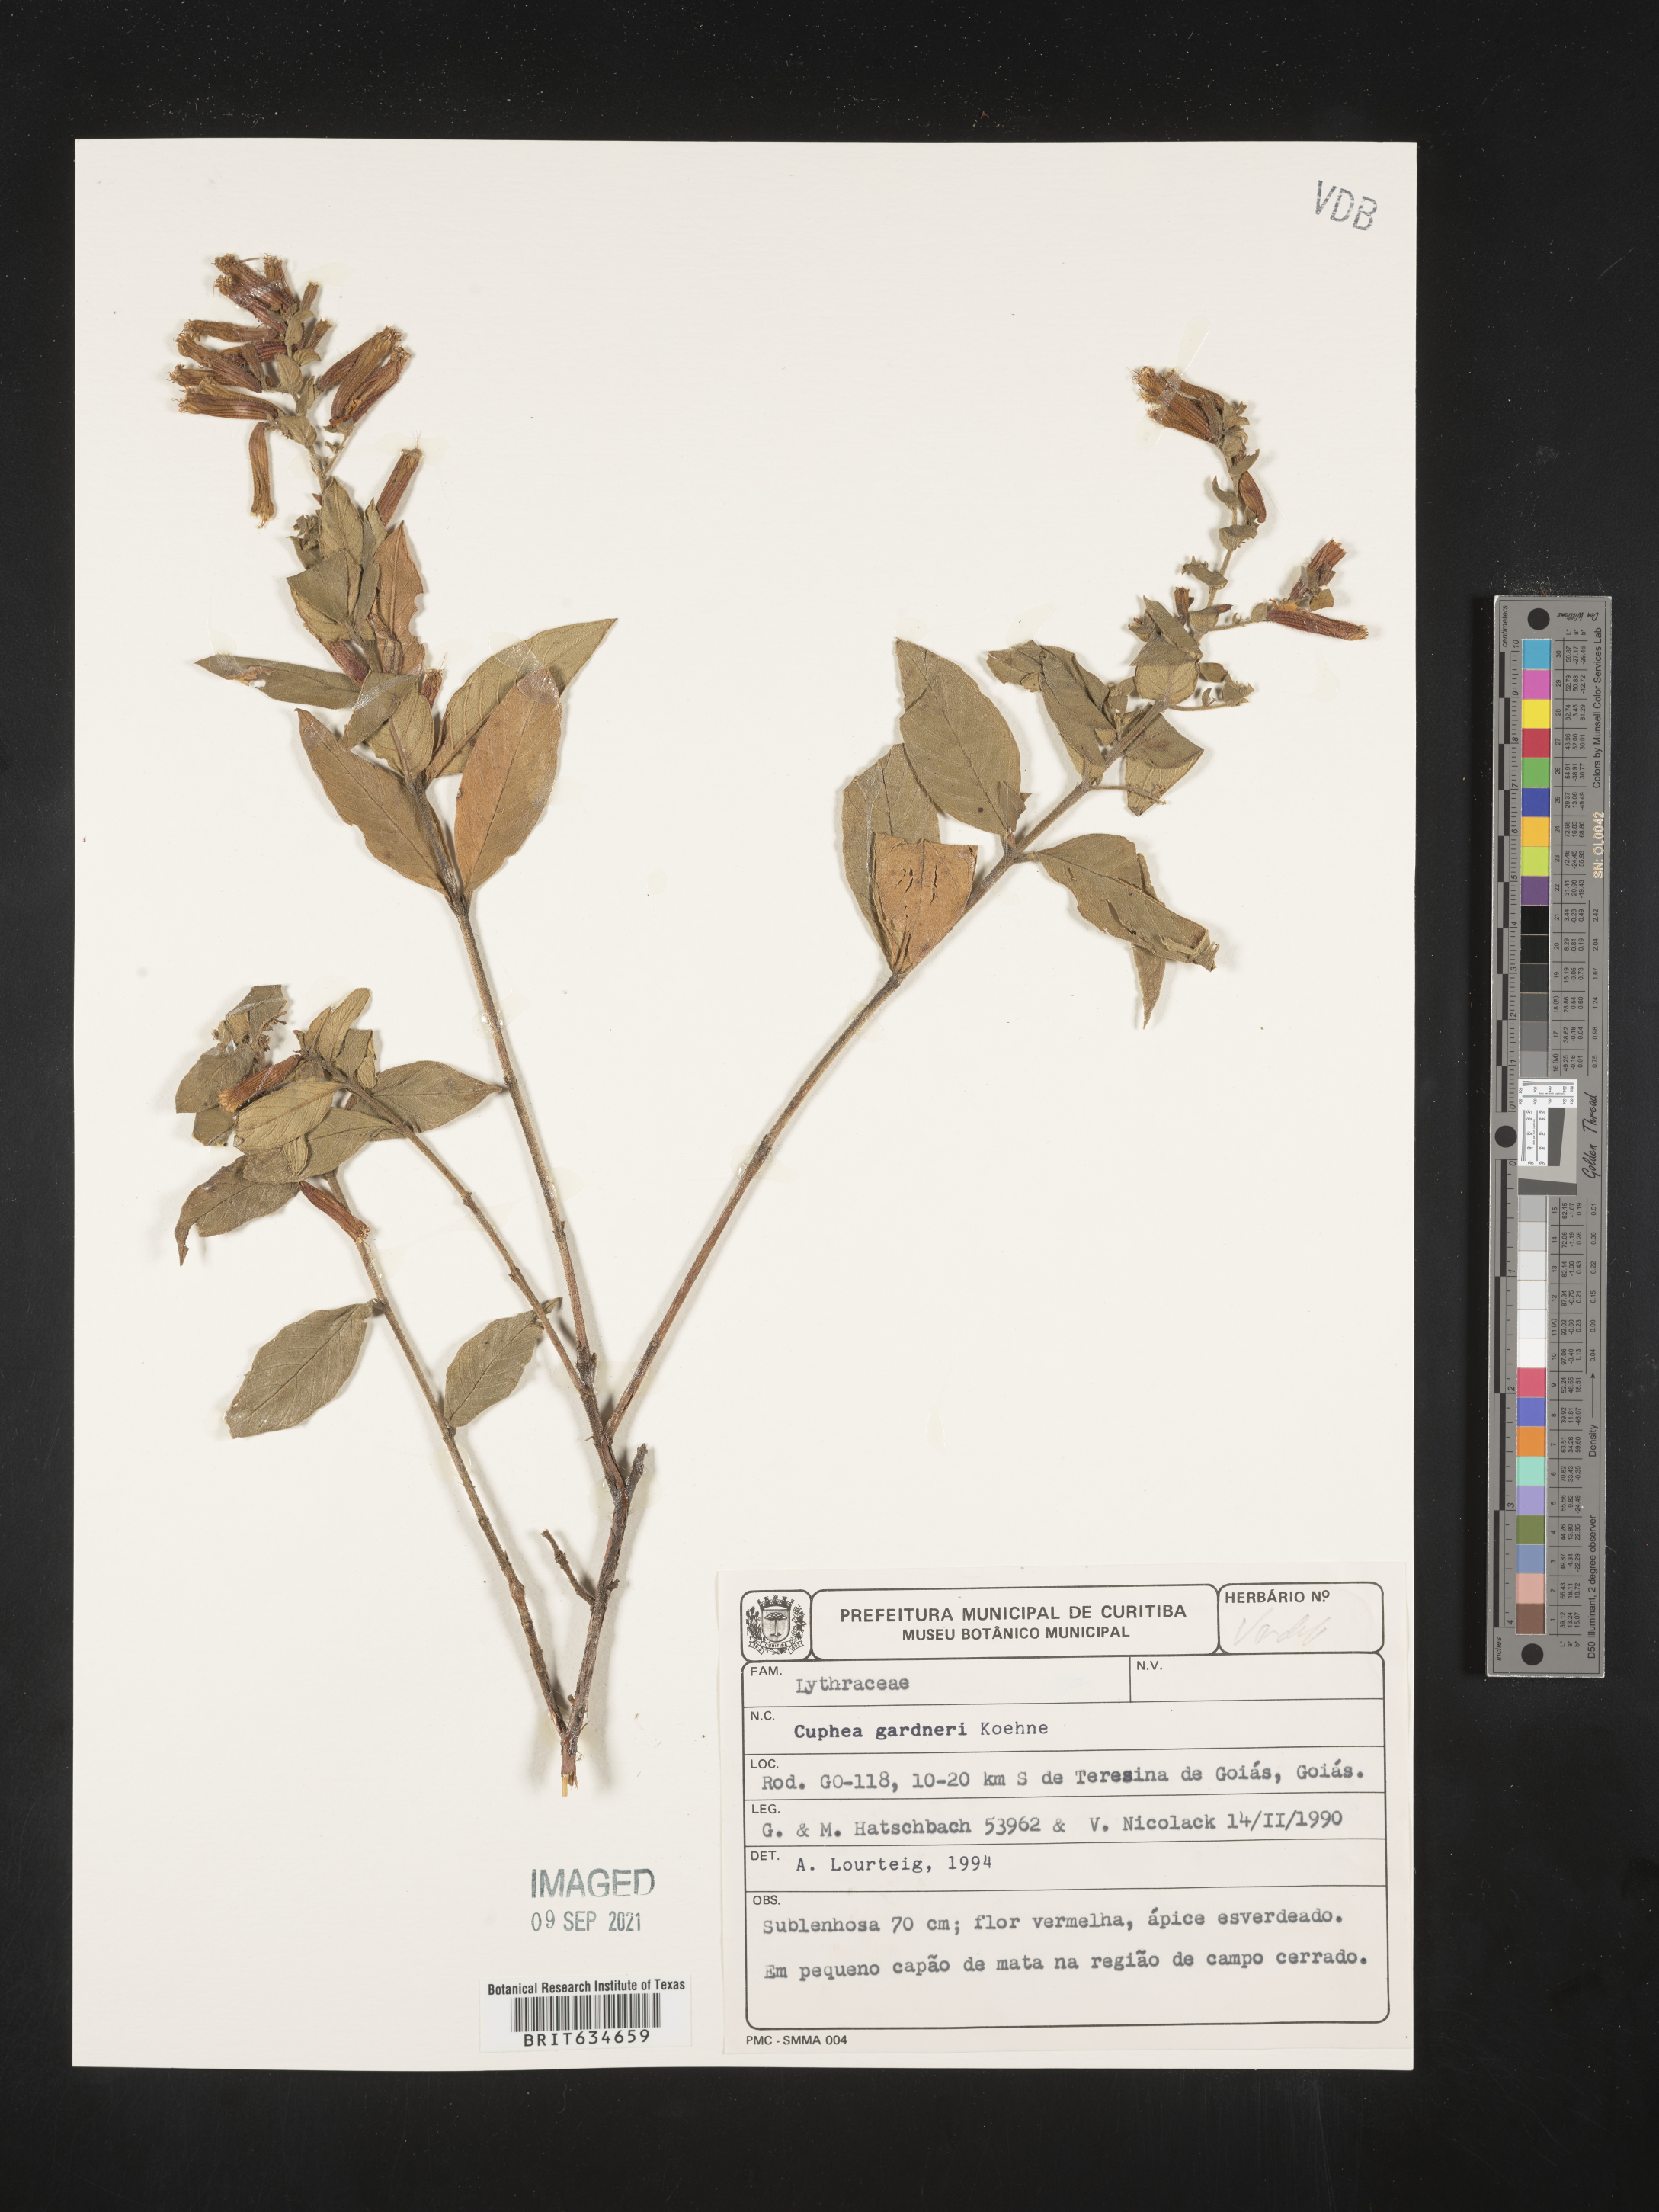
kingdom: Plantae
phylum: Tracheophyta
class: Magnoliopsida
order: Myrtales
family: Lythraceae
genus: Cuphea
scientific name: Cuphea
